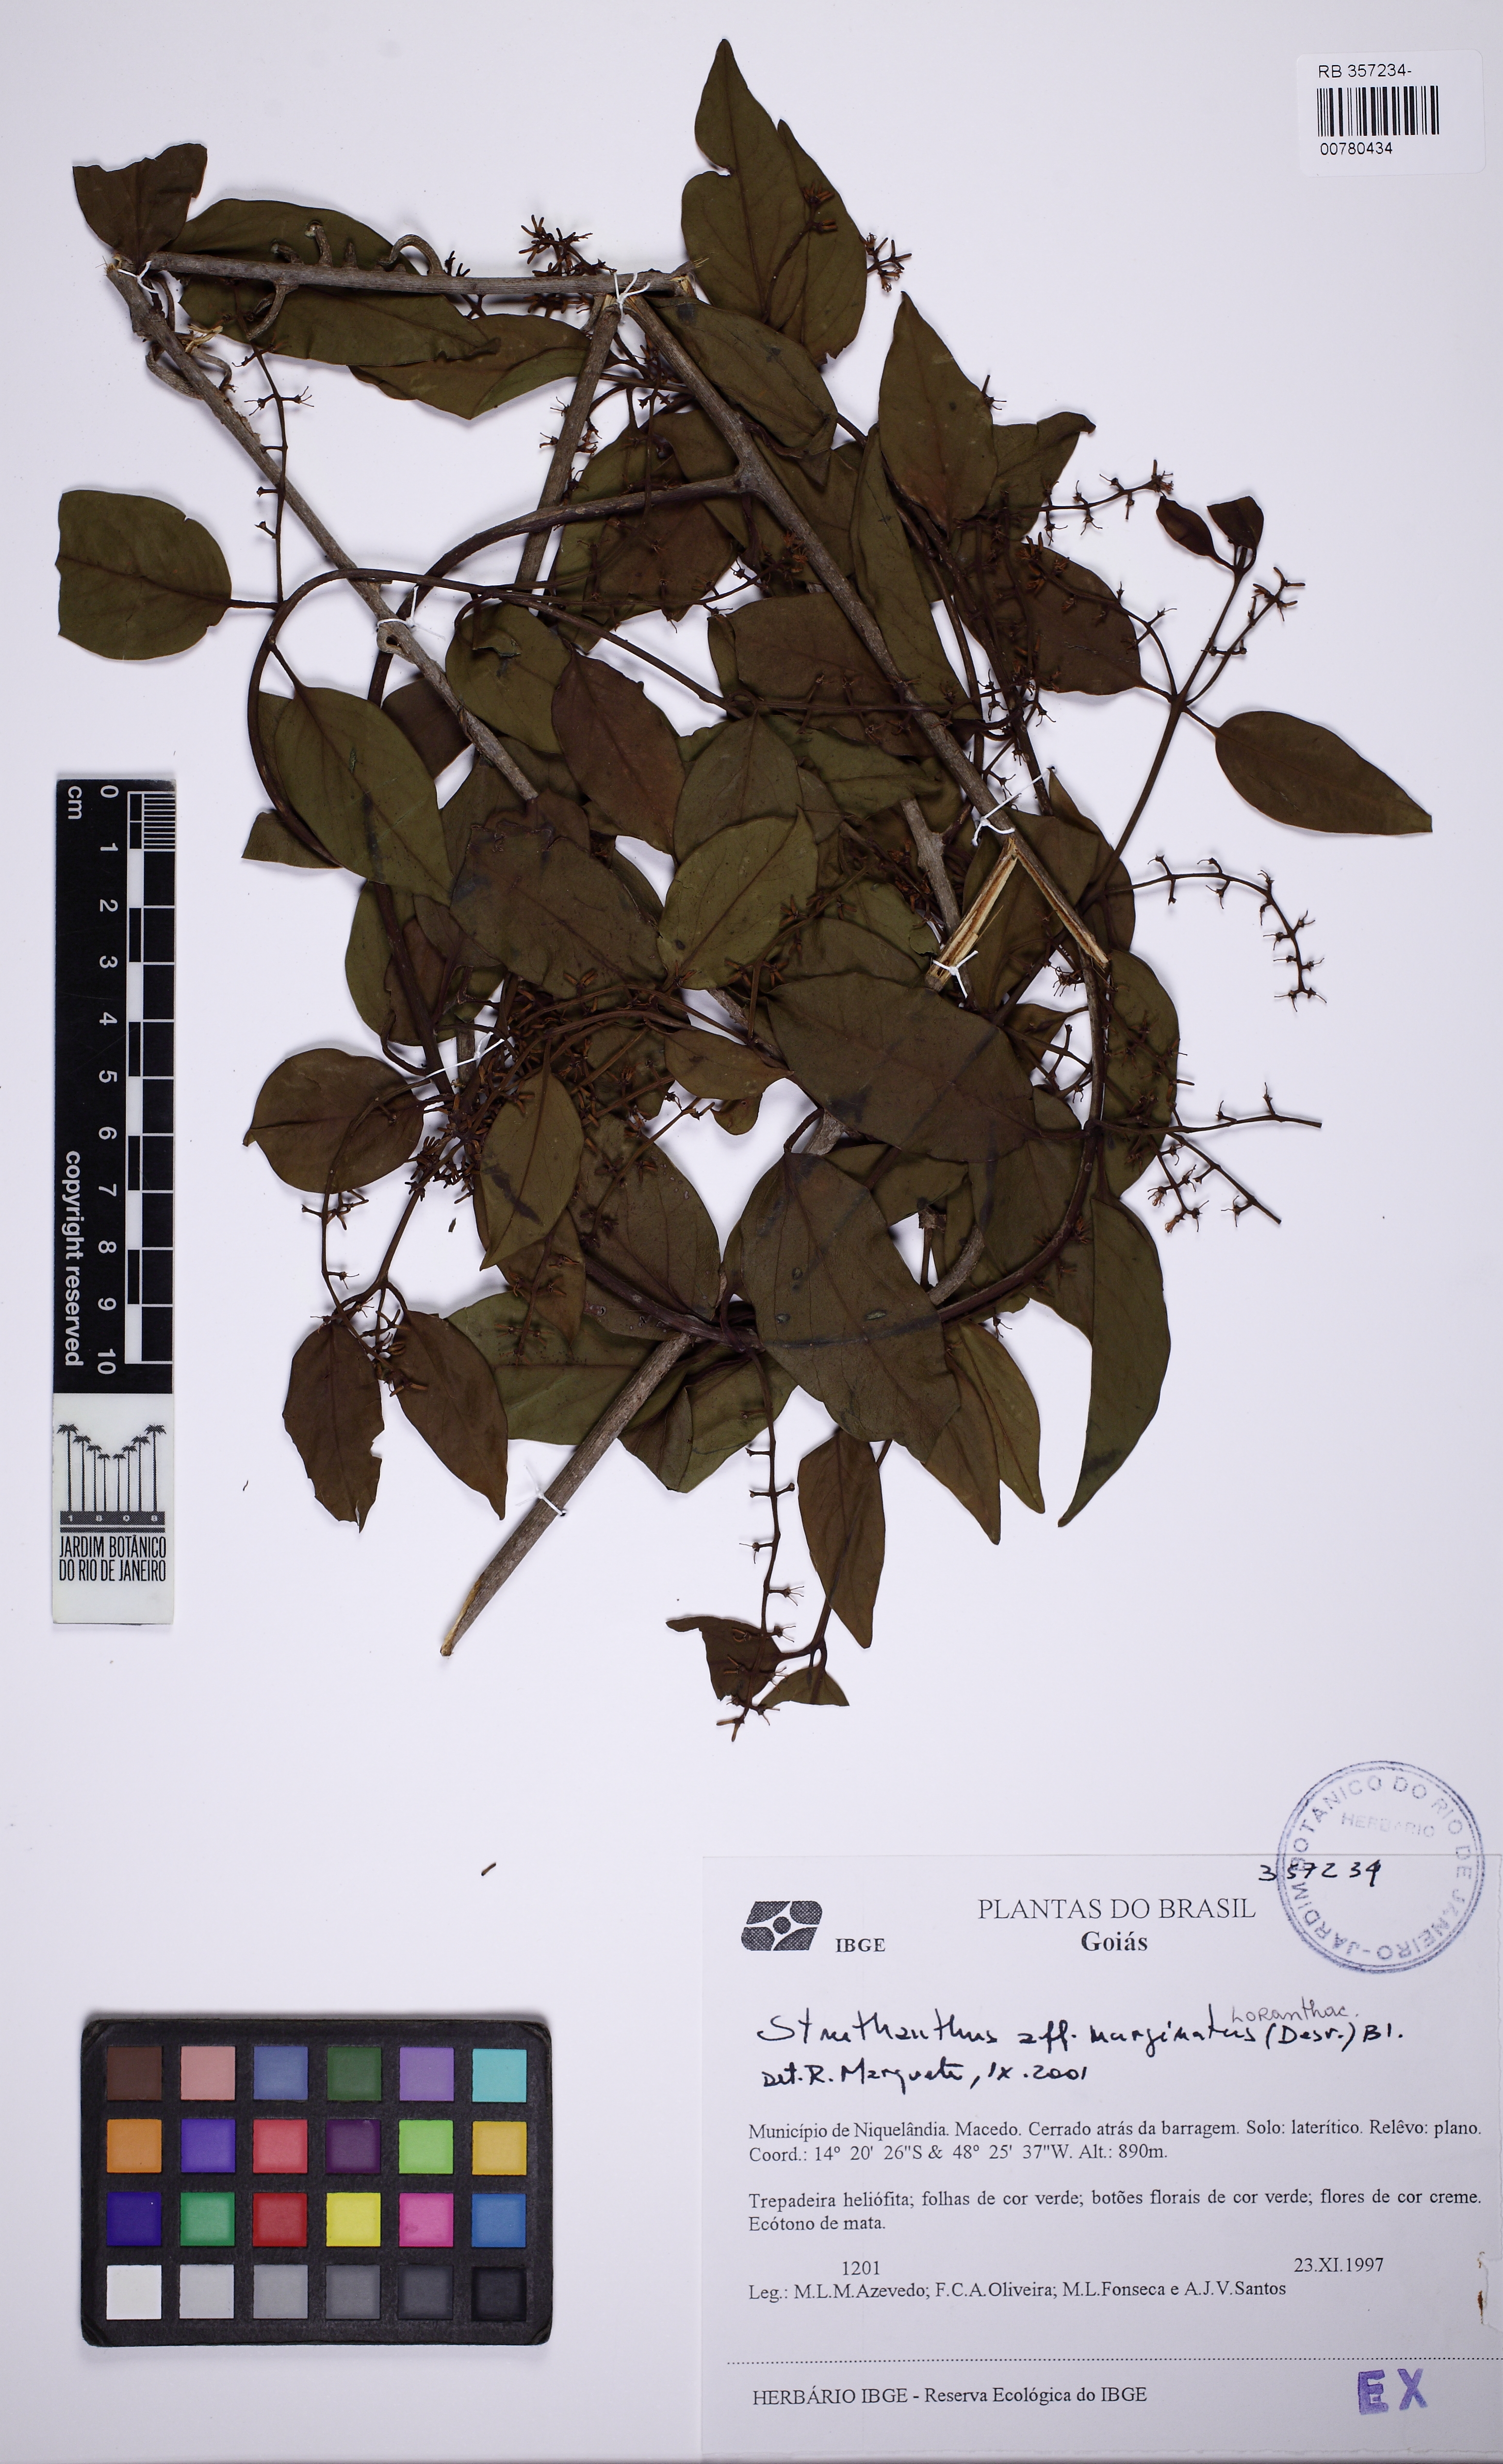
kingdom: Plantae
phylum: Tracheophyta
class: Magnoliopsida
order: Santalales
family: Loranthaceae
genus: Struthanthus
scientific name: Struthanthus marginatus
